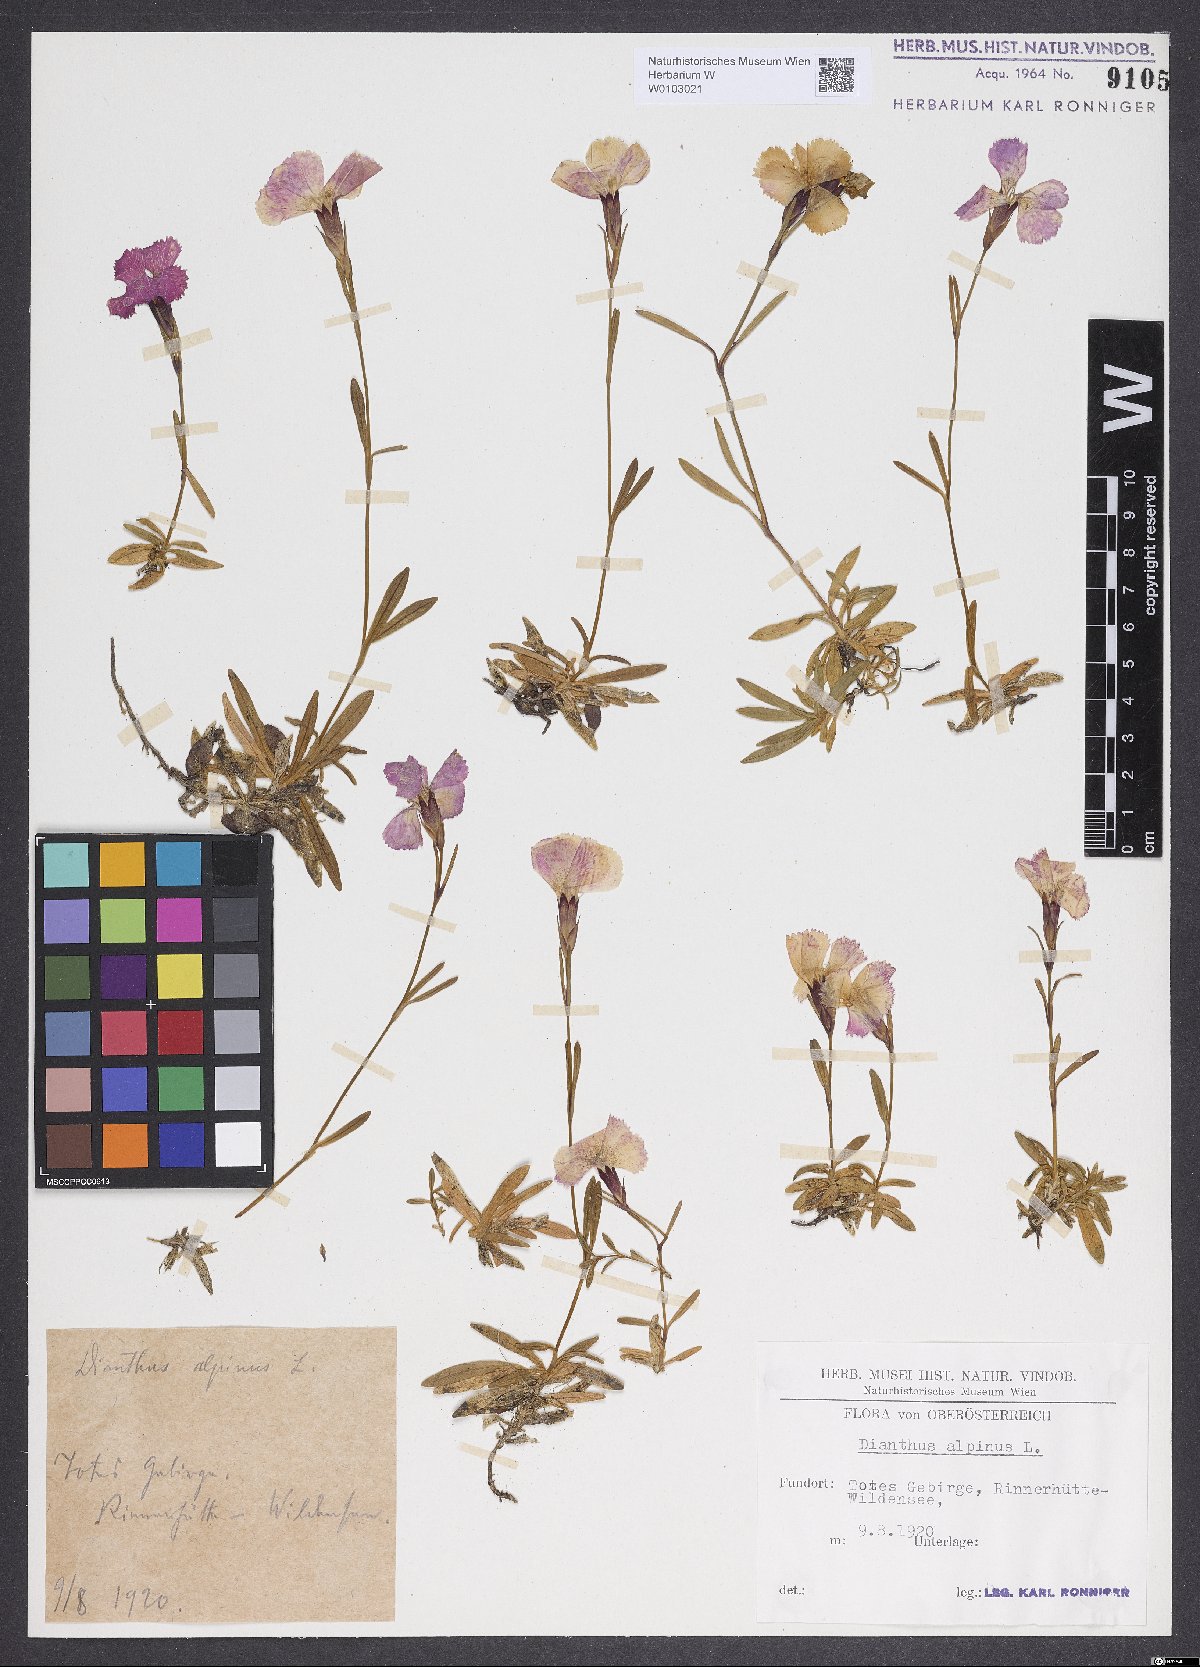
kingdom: Plantae
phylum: Tracheophyta
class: Magnoliopsida
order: Caryophyllales
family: Caryophyllaceae
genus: Dianthus
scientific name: Dianthus alpinus
